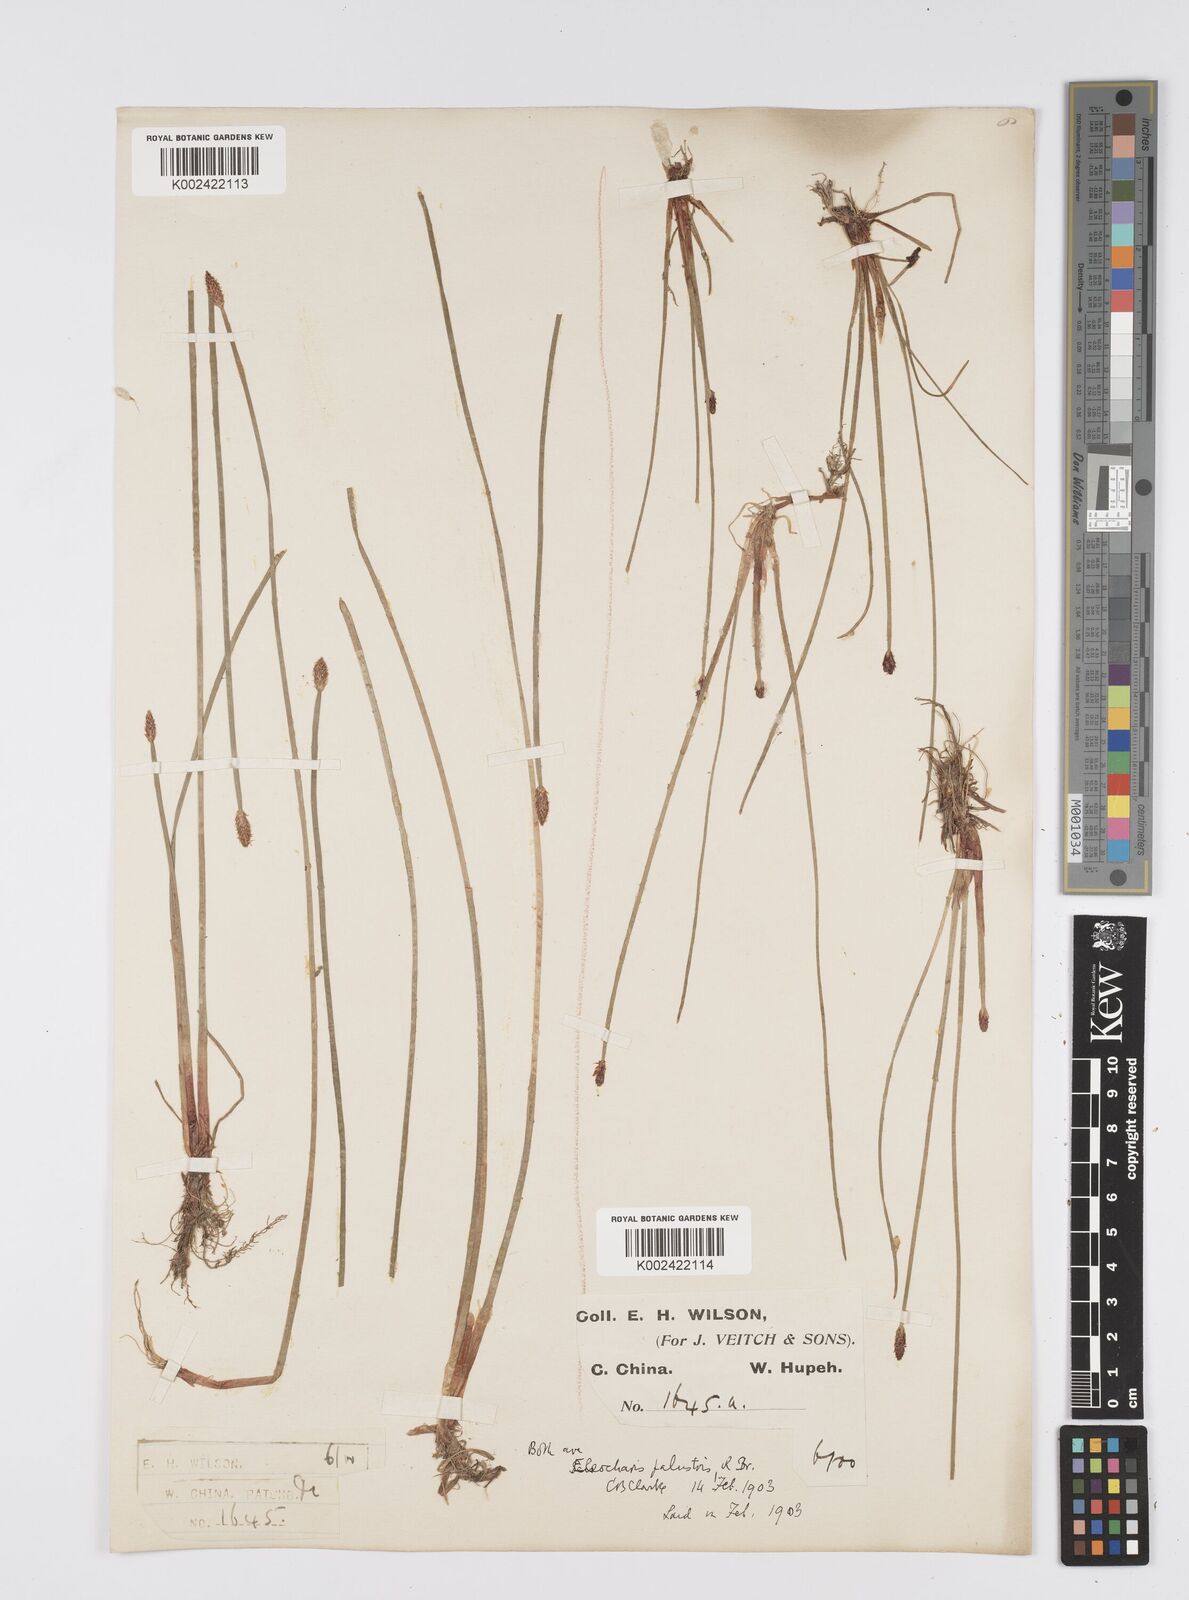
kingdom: Plantae
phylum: Tracheophyta
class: Liliopsida
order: Poales
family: Cyperaceae
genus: Eleocharis
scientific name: Eleocharis palustris
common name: Common spike-rush
